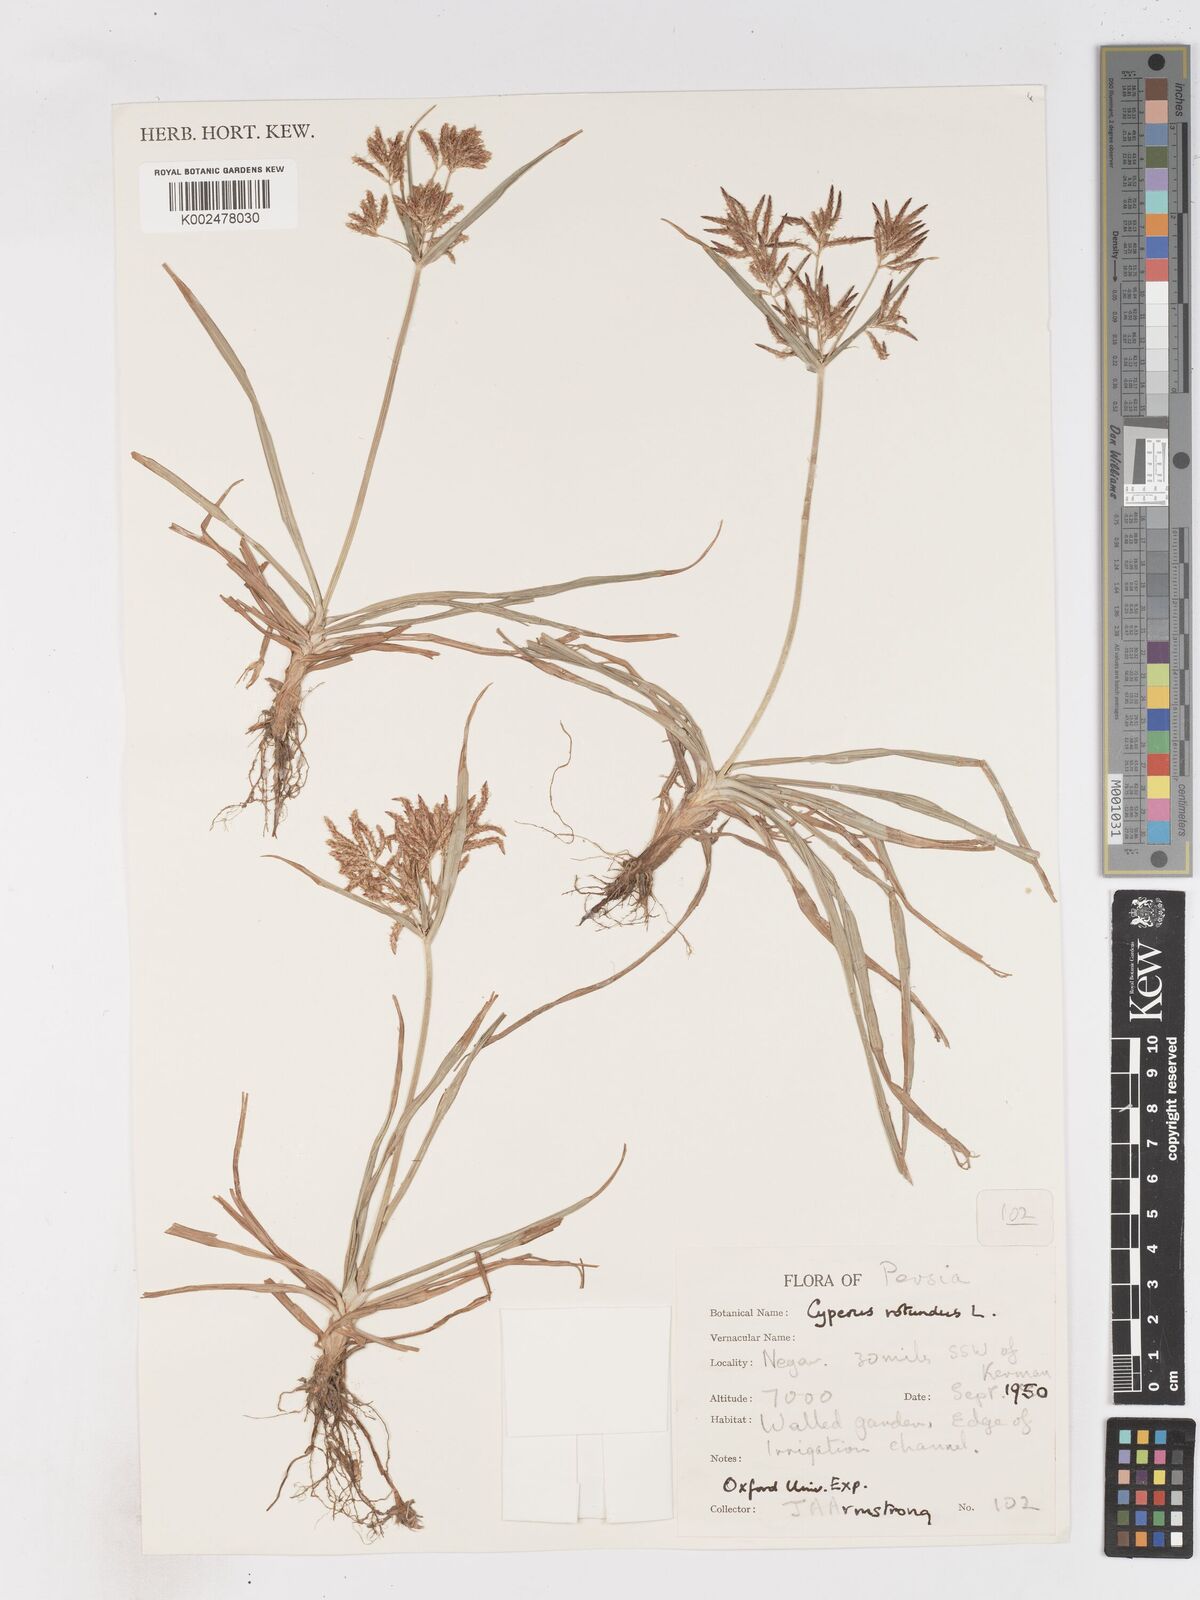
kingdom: Plantae
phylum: Tracheophyta
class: Liliopsida
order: Poales
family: Cyperaceae
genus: Cyperus
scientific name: Cyperus rotundus
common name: Nutgrass
